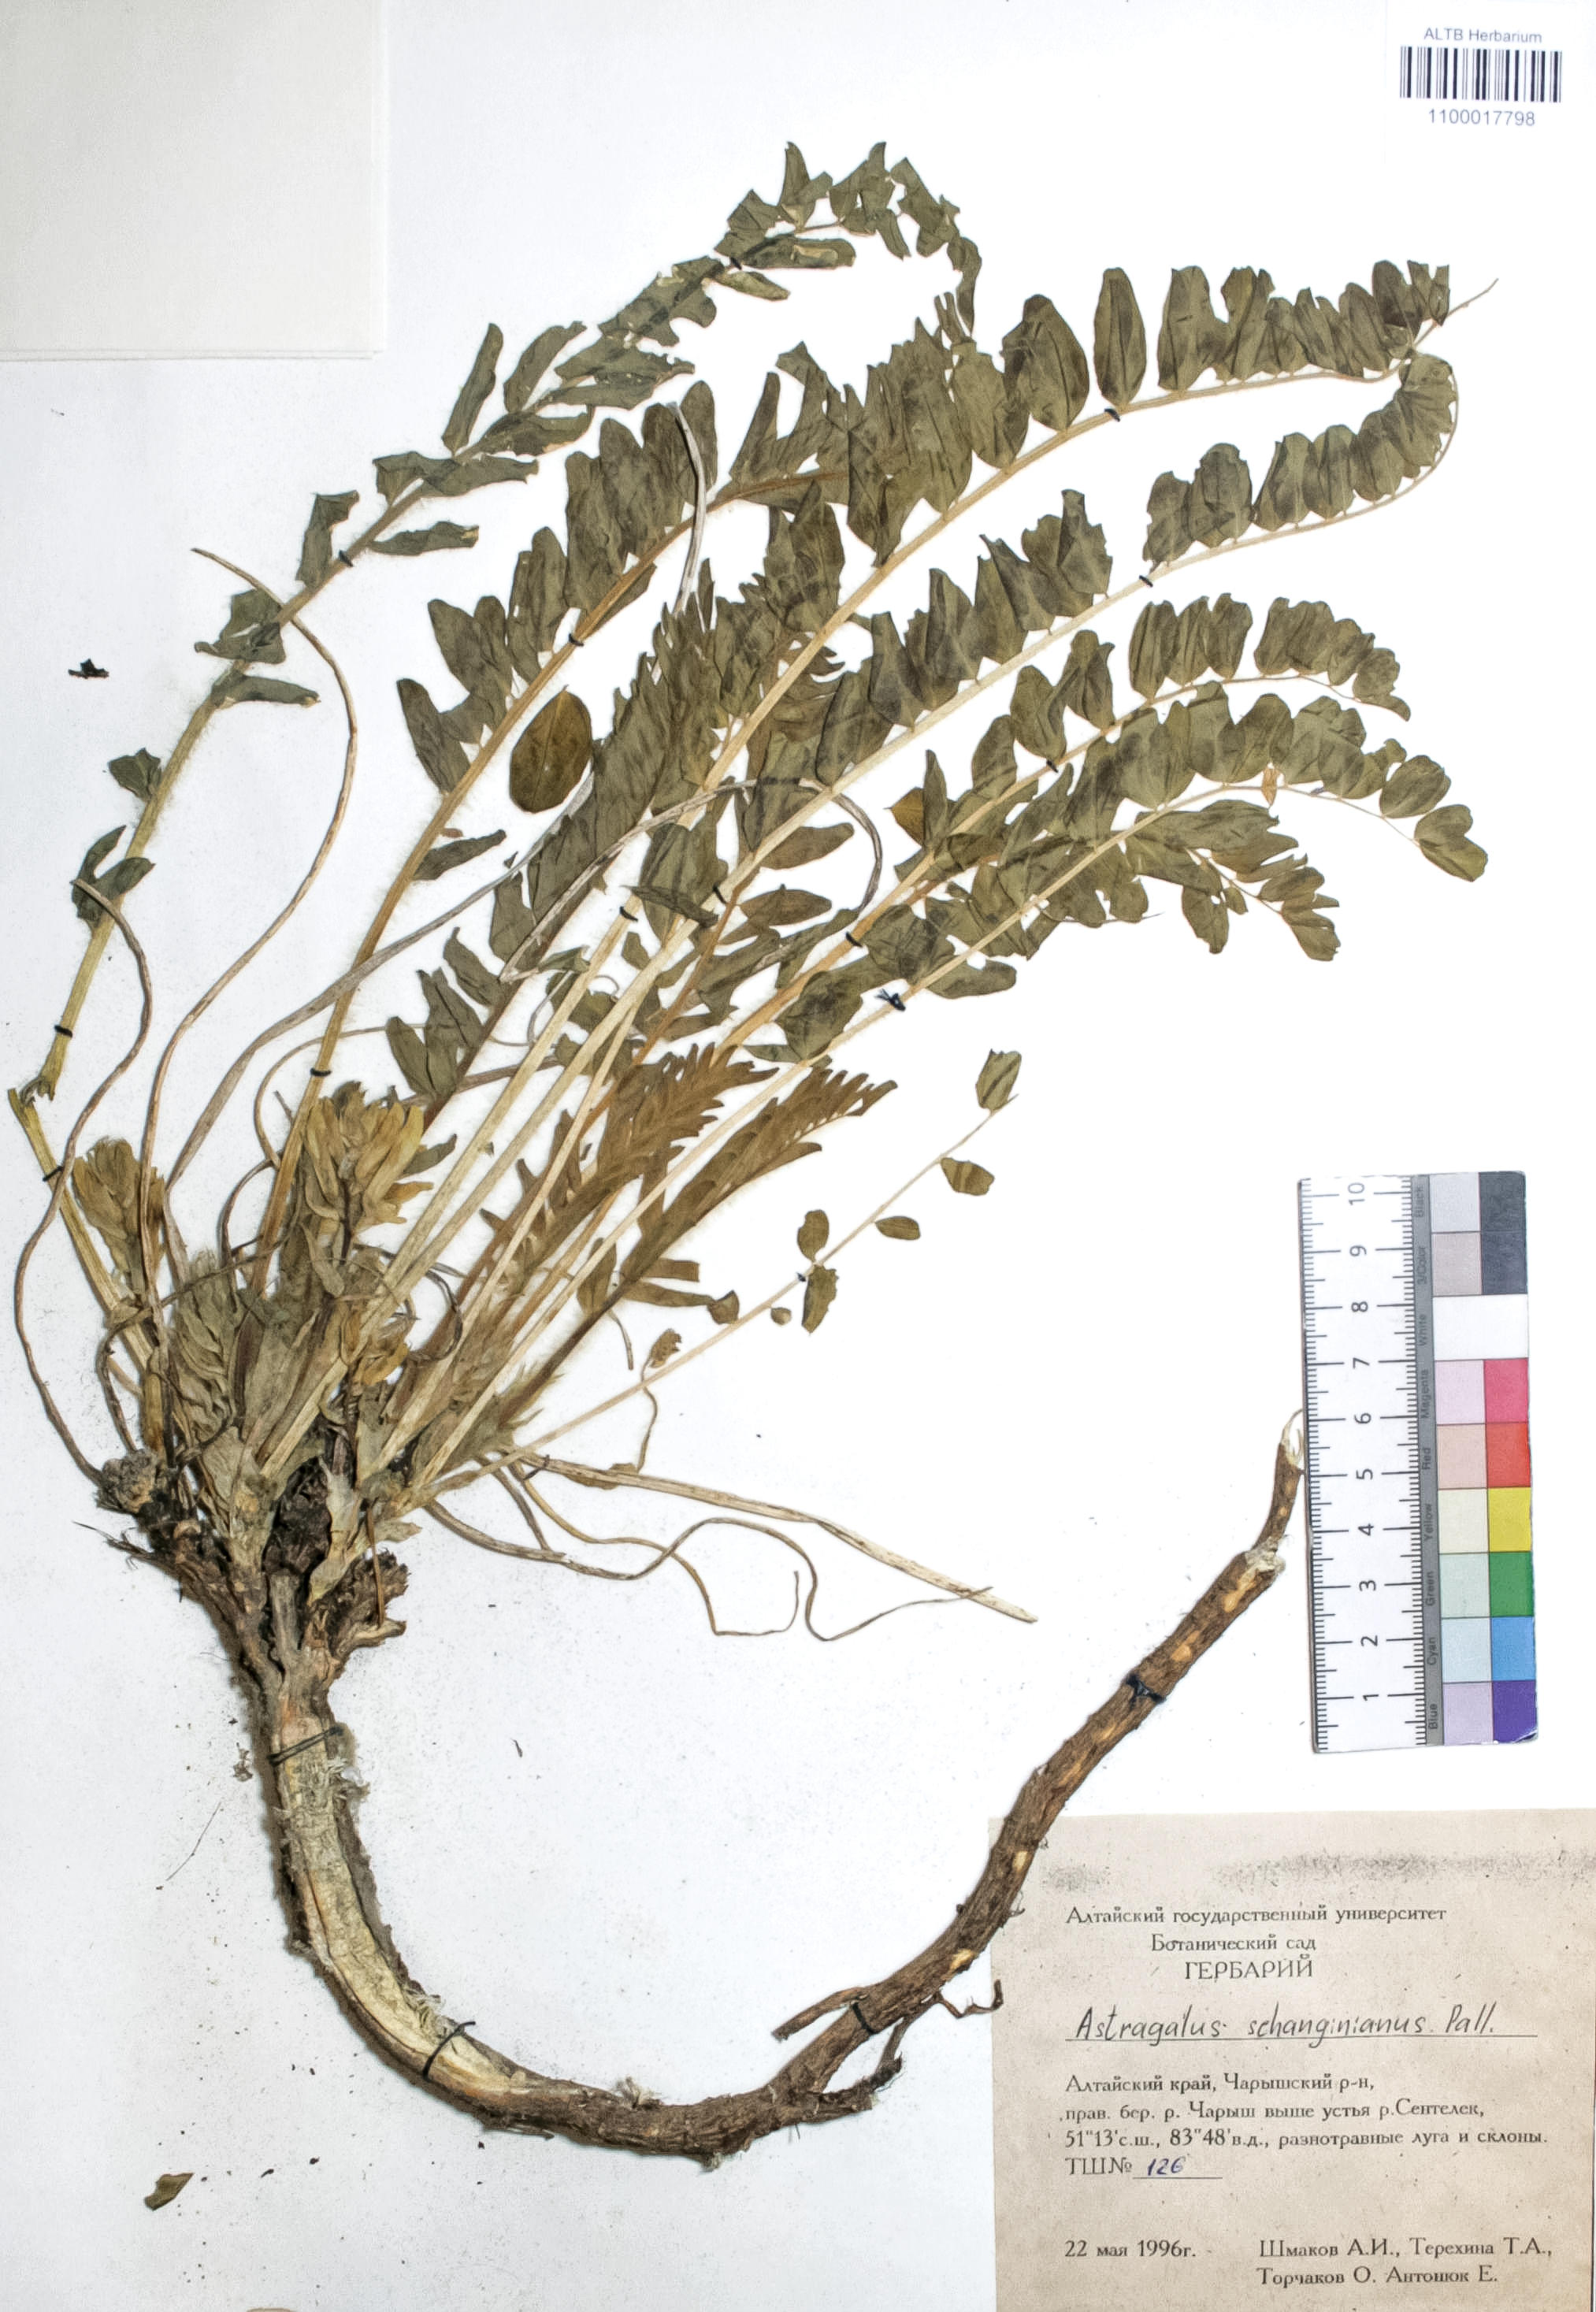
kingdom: Plantae
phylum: Tracheophyta
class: Magnoliopsida
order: Fabales
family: Fabaceae
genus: Astragalus
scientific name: Astragalus schanginianus
